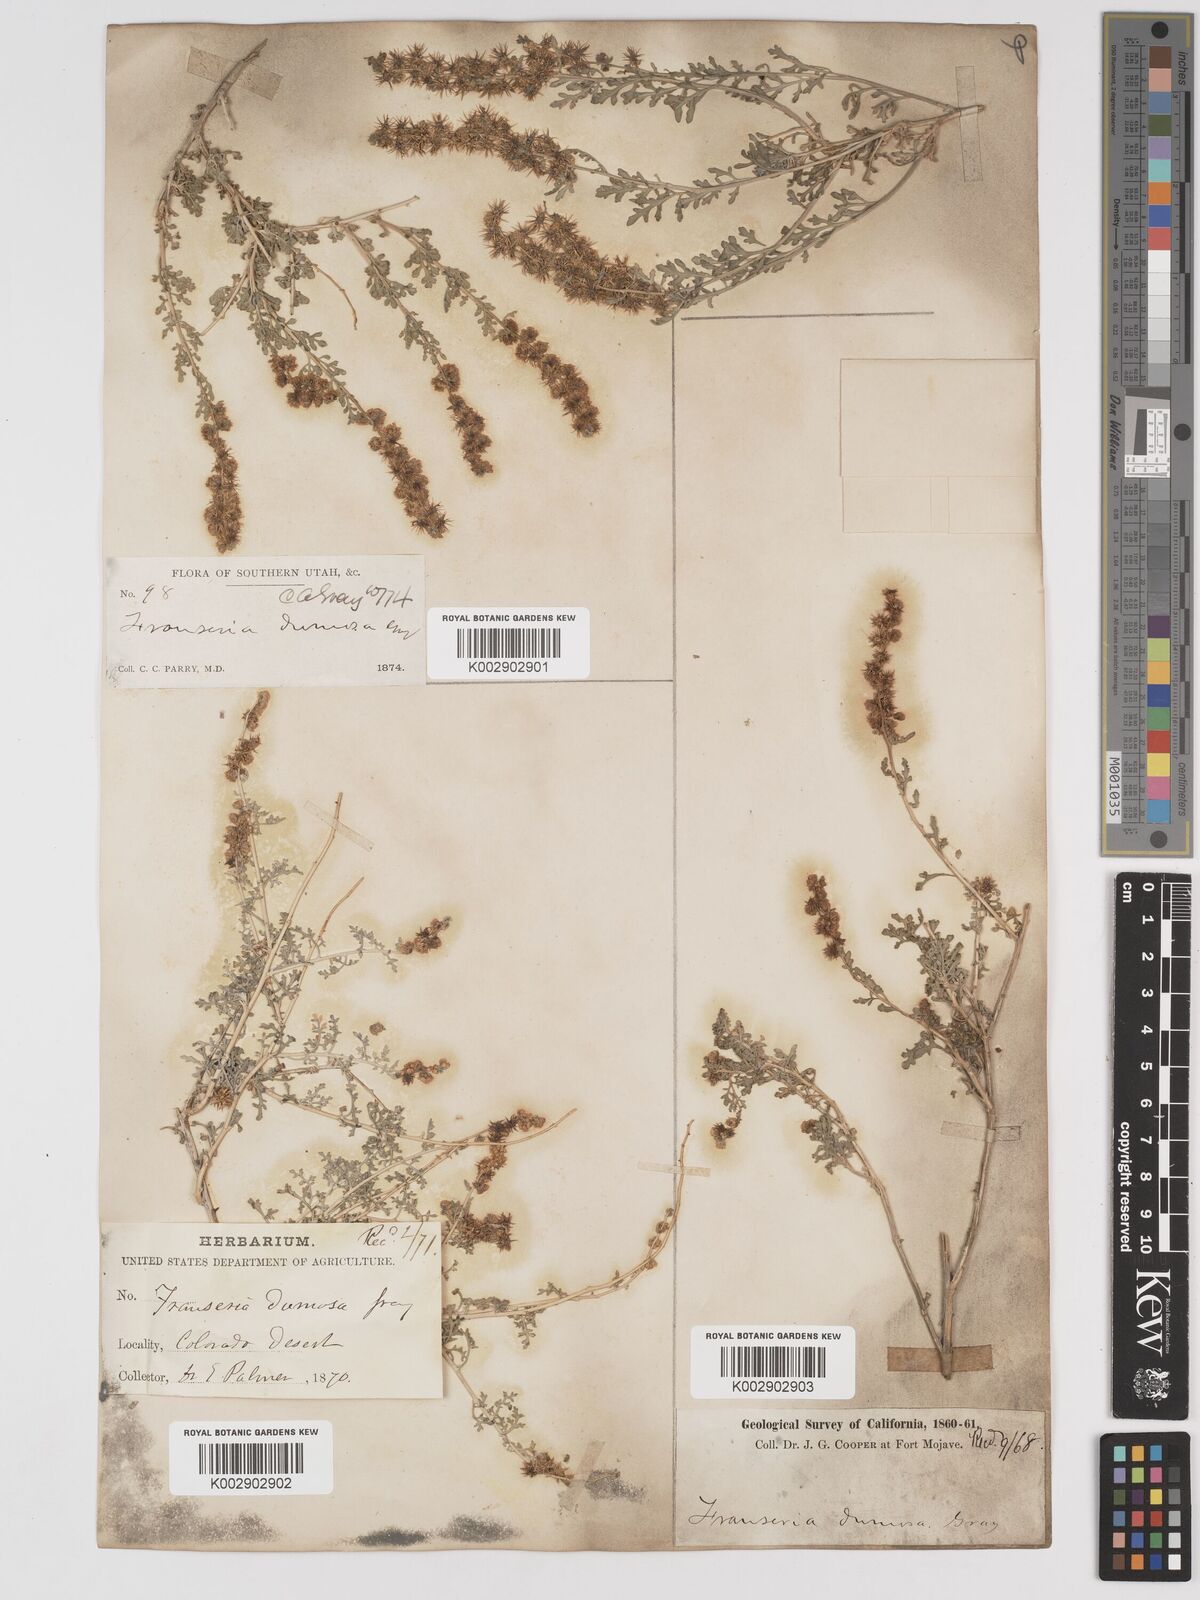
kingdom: Plantae
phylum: Tracheophyta
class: Magnoliopsida
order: Asterales
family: Asteraceae
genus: Ambrosia
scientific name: Ambrosia dumosa
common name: Bur-sage
